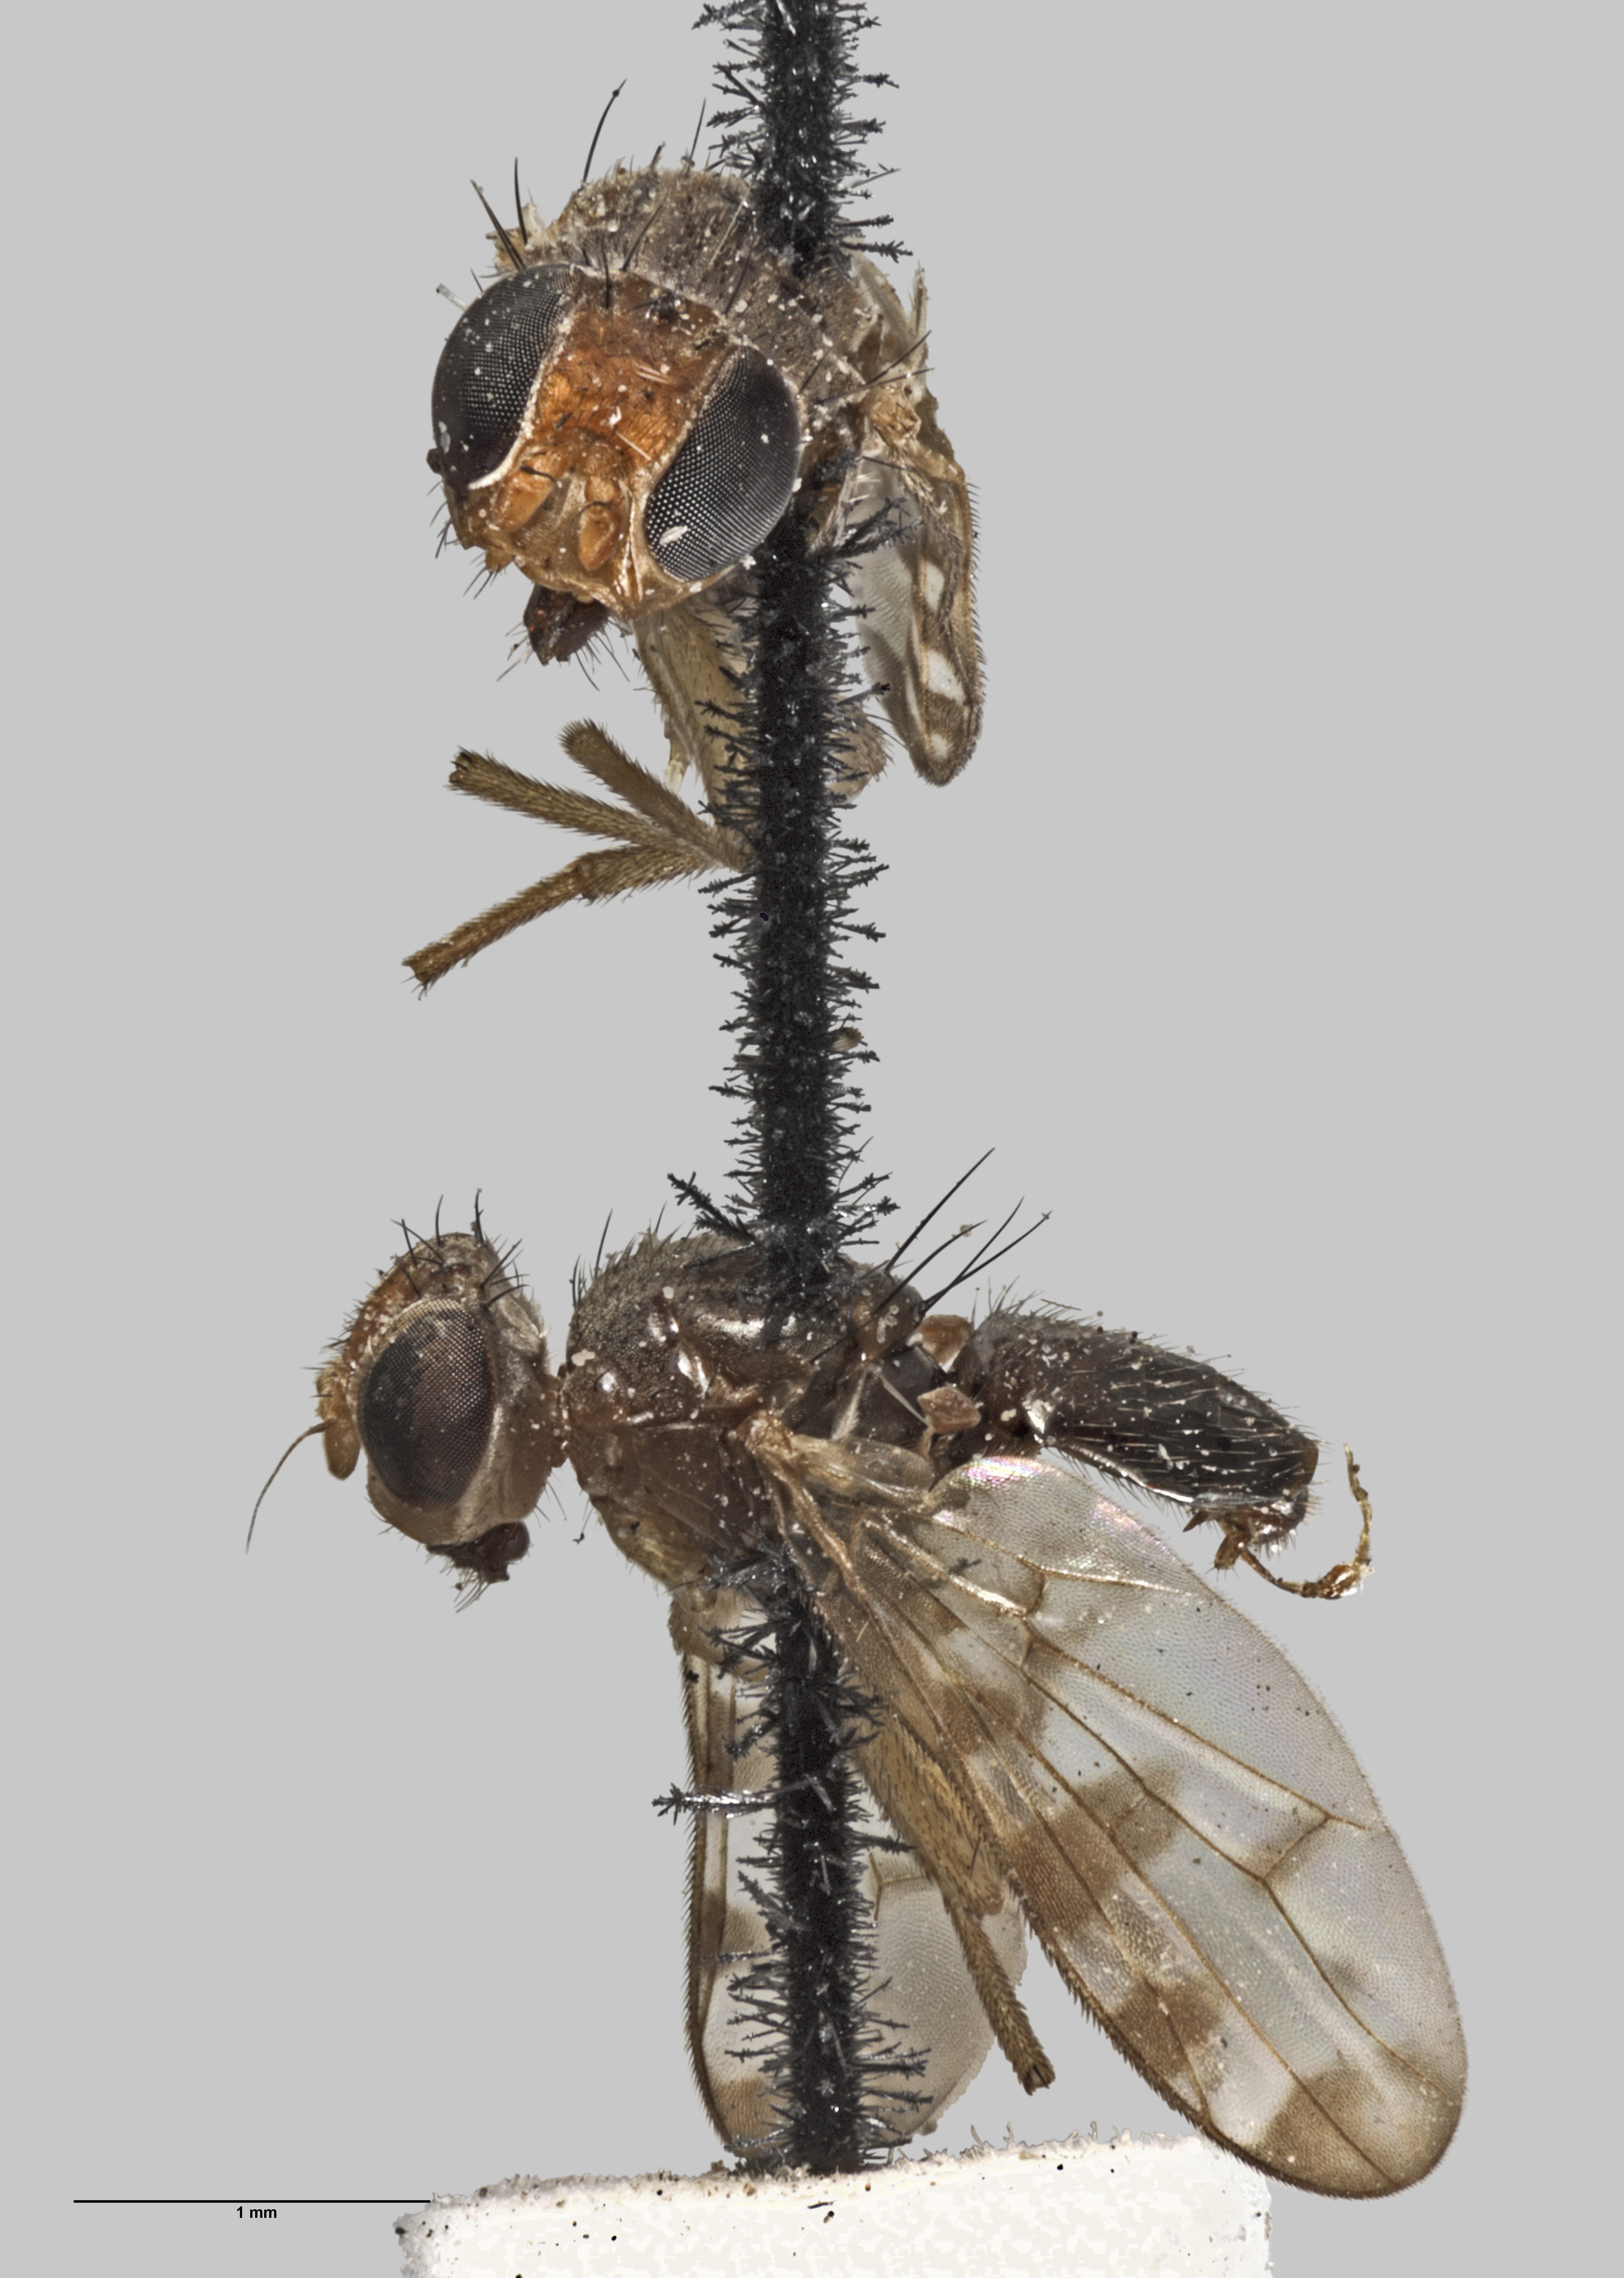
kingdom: Animalia
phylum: Arthropoda
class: Insecta
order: Diptera
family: Platystomatidae
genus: Zealandortalis
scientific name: Zealandortalis philpotti
